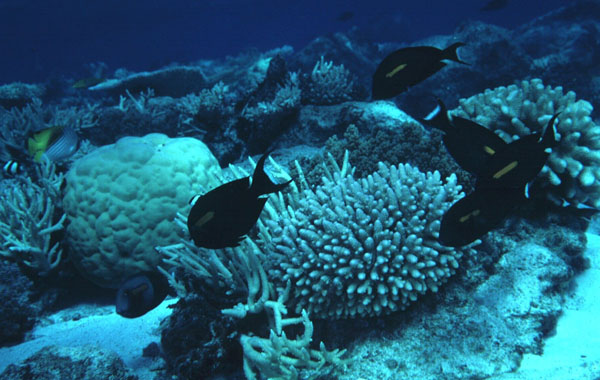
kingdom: Animalia
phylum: Chordata
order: Perciformes
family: Acanthuridae
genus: Acanthurus
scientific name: Acanthurus olivaceus
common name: Gendarme fish
